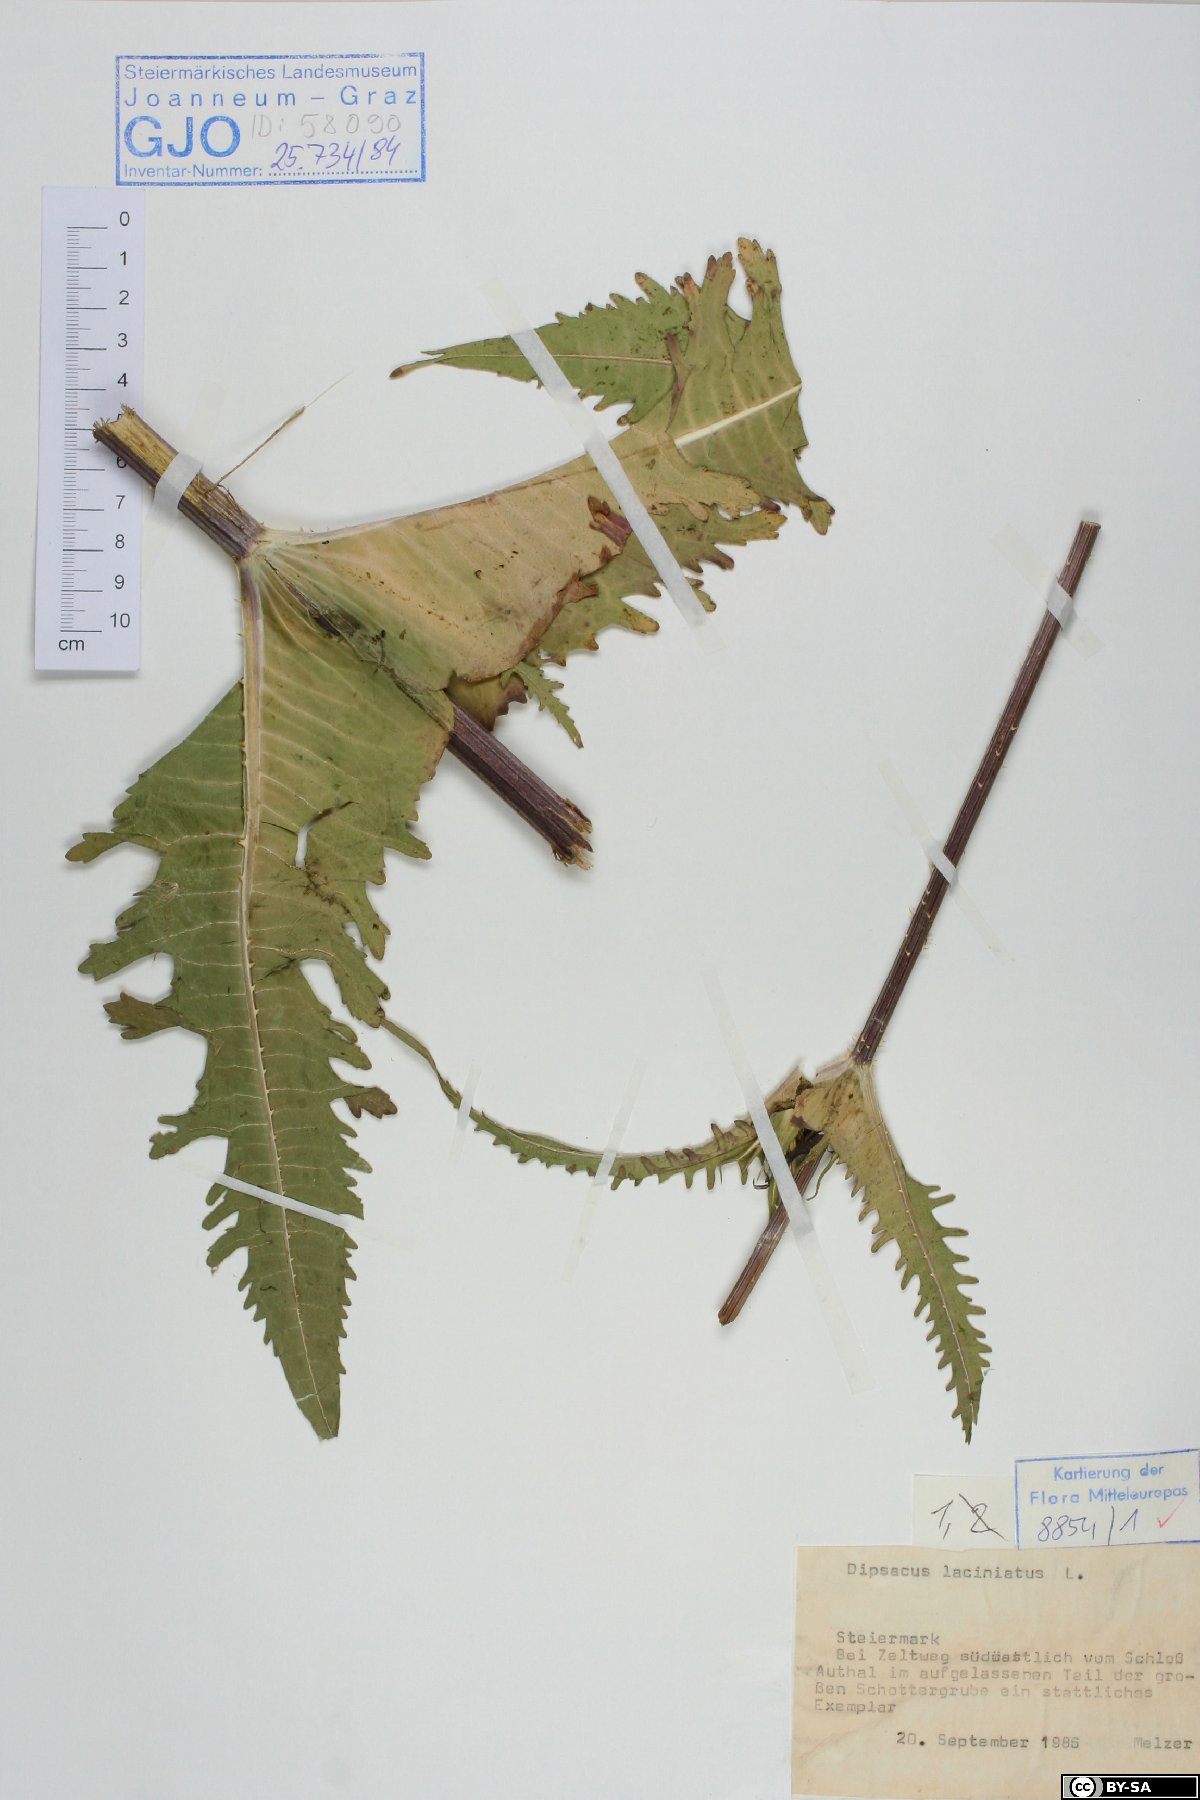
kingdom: Plantae
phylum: Tracheophyta
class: Magnoliopsida
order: Dipsacales
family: Caprifoliaceae
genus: Dipsacus
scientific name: Dipsacus laciniatus
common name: Cut-leaved teasel
